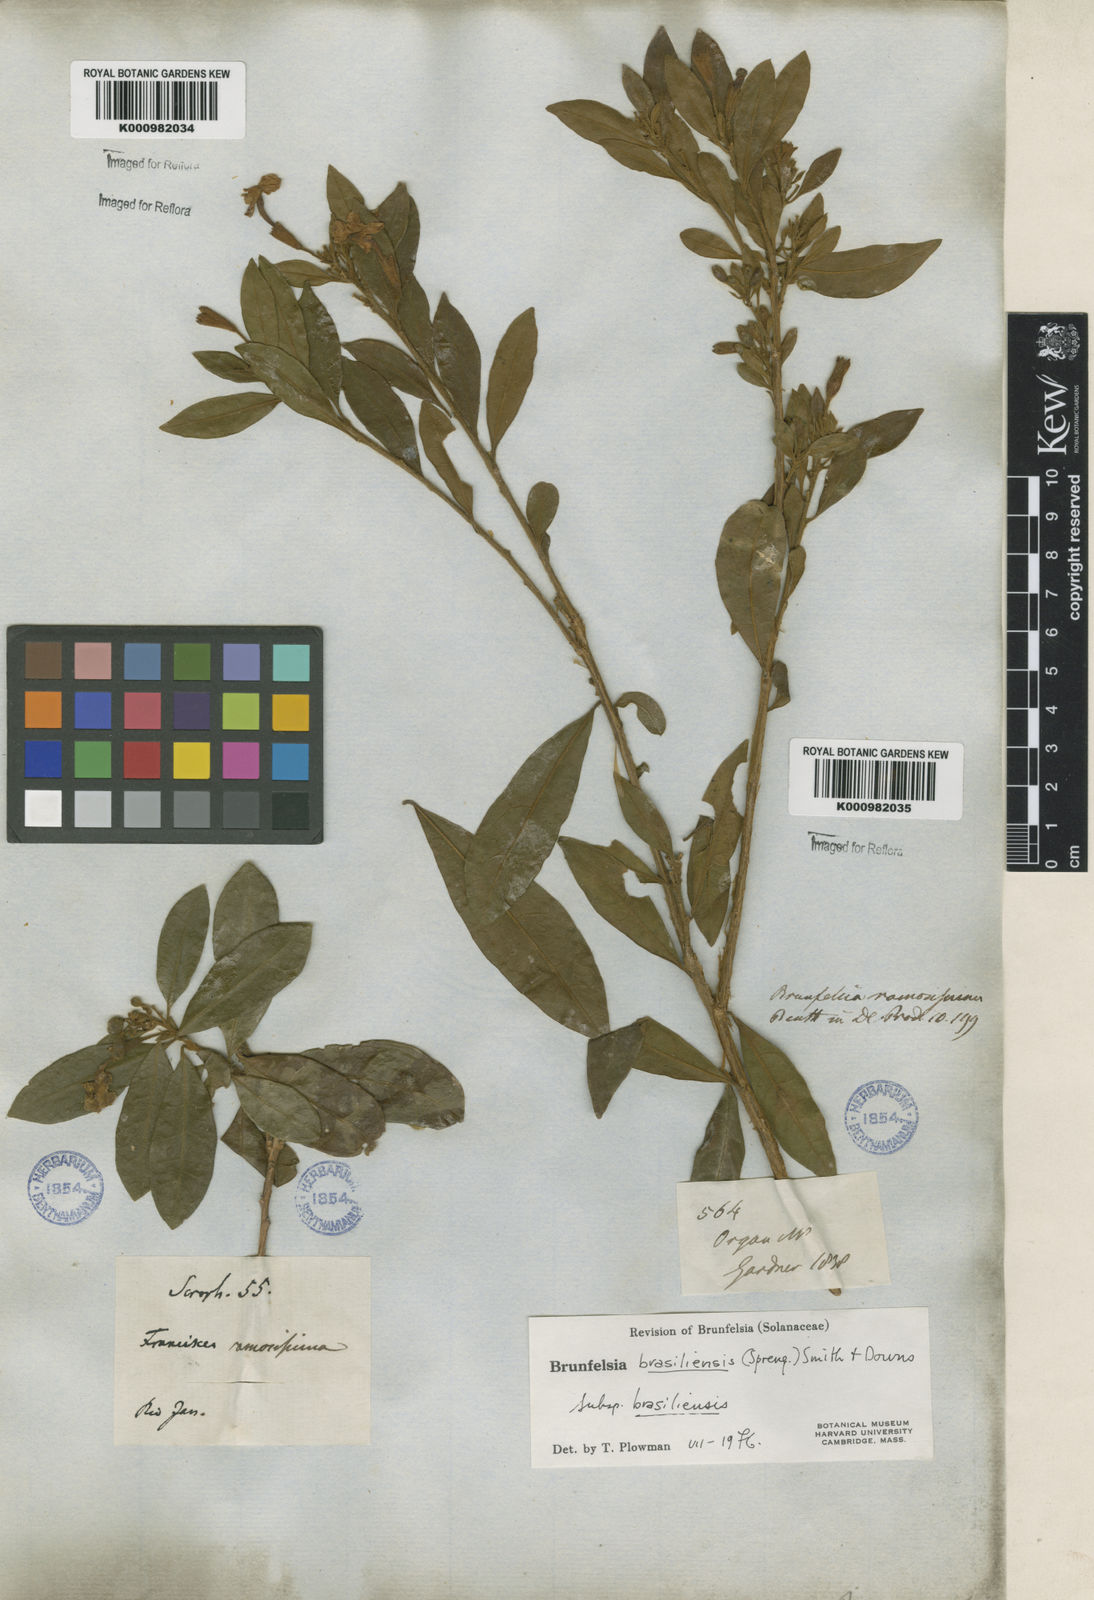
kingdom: Plantae
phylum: Tracheophyta
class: Magnoliopsida
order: Solanales
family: Solanaceae
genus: Brunfelsia
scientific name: Brunfelsia brasiliensis
